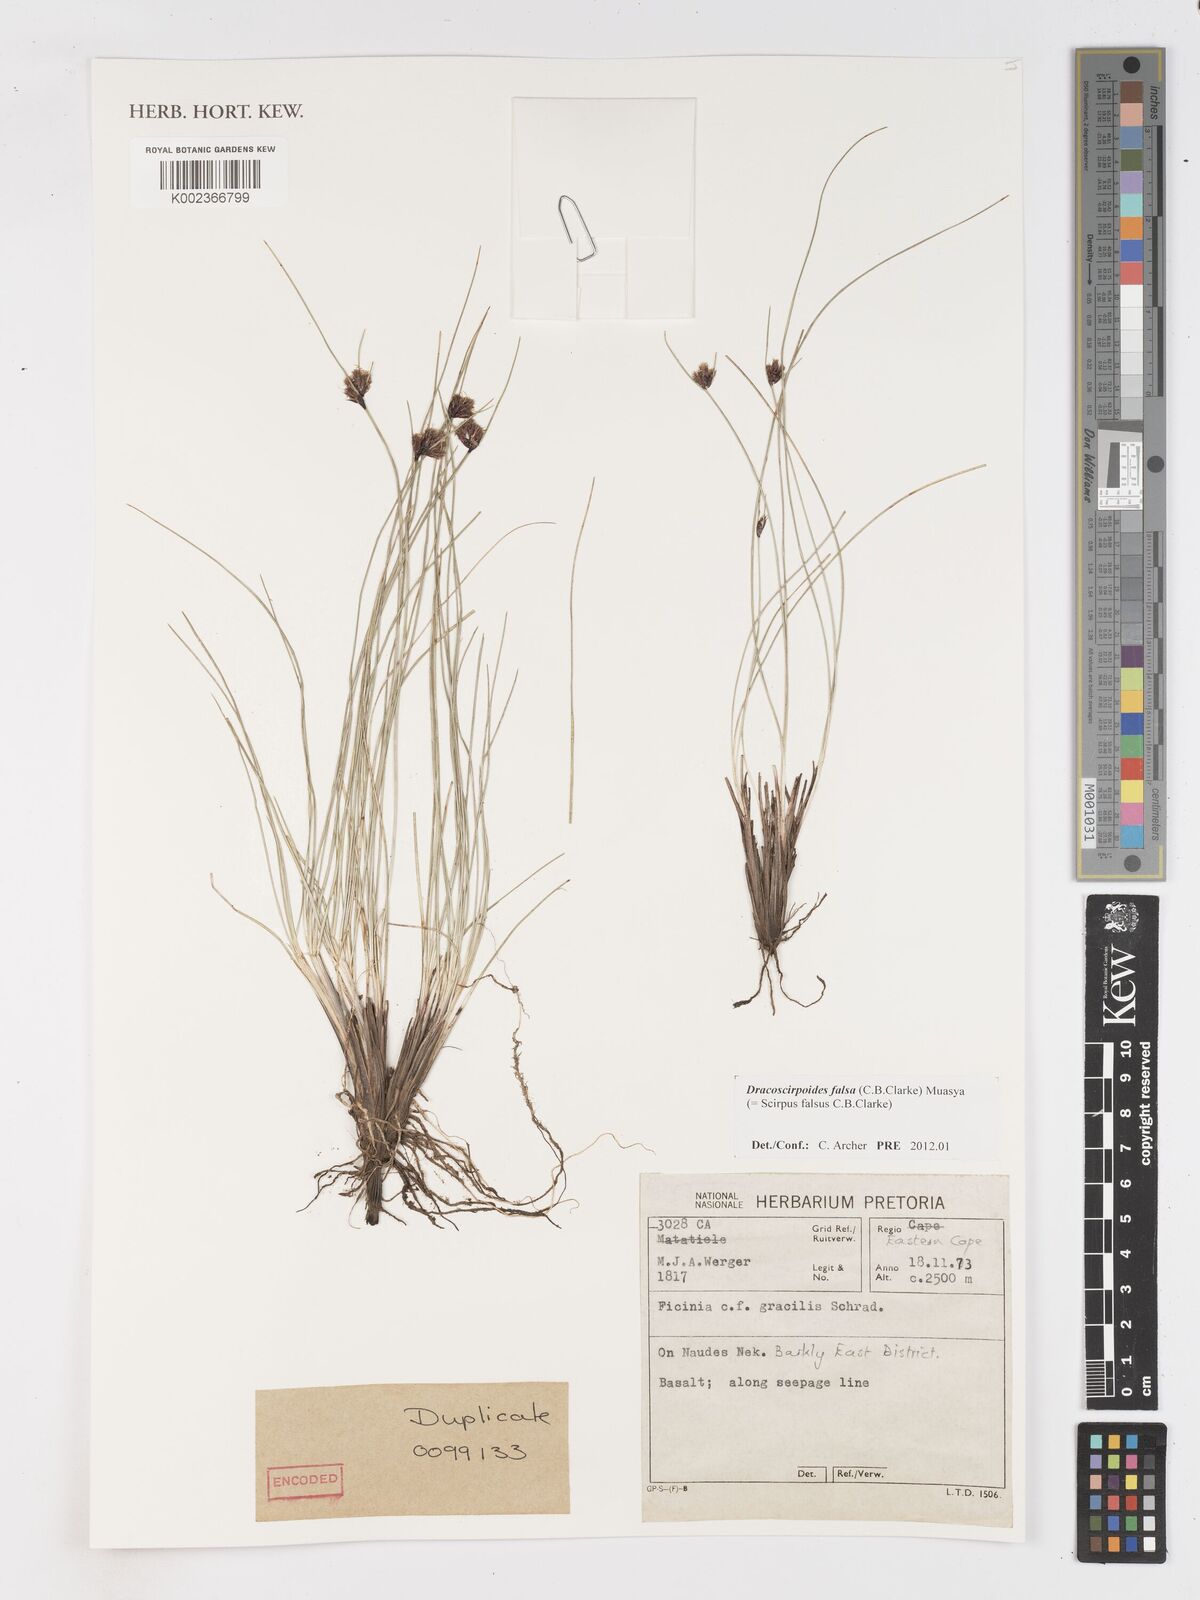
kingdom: Plantae
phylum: Tracheophyta
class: Liliopsida
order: Poales
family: Cyperaceae
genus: Dracoscirpoides
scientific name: Dracoscirpoides falsa
